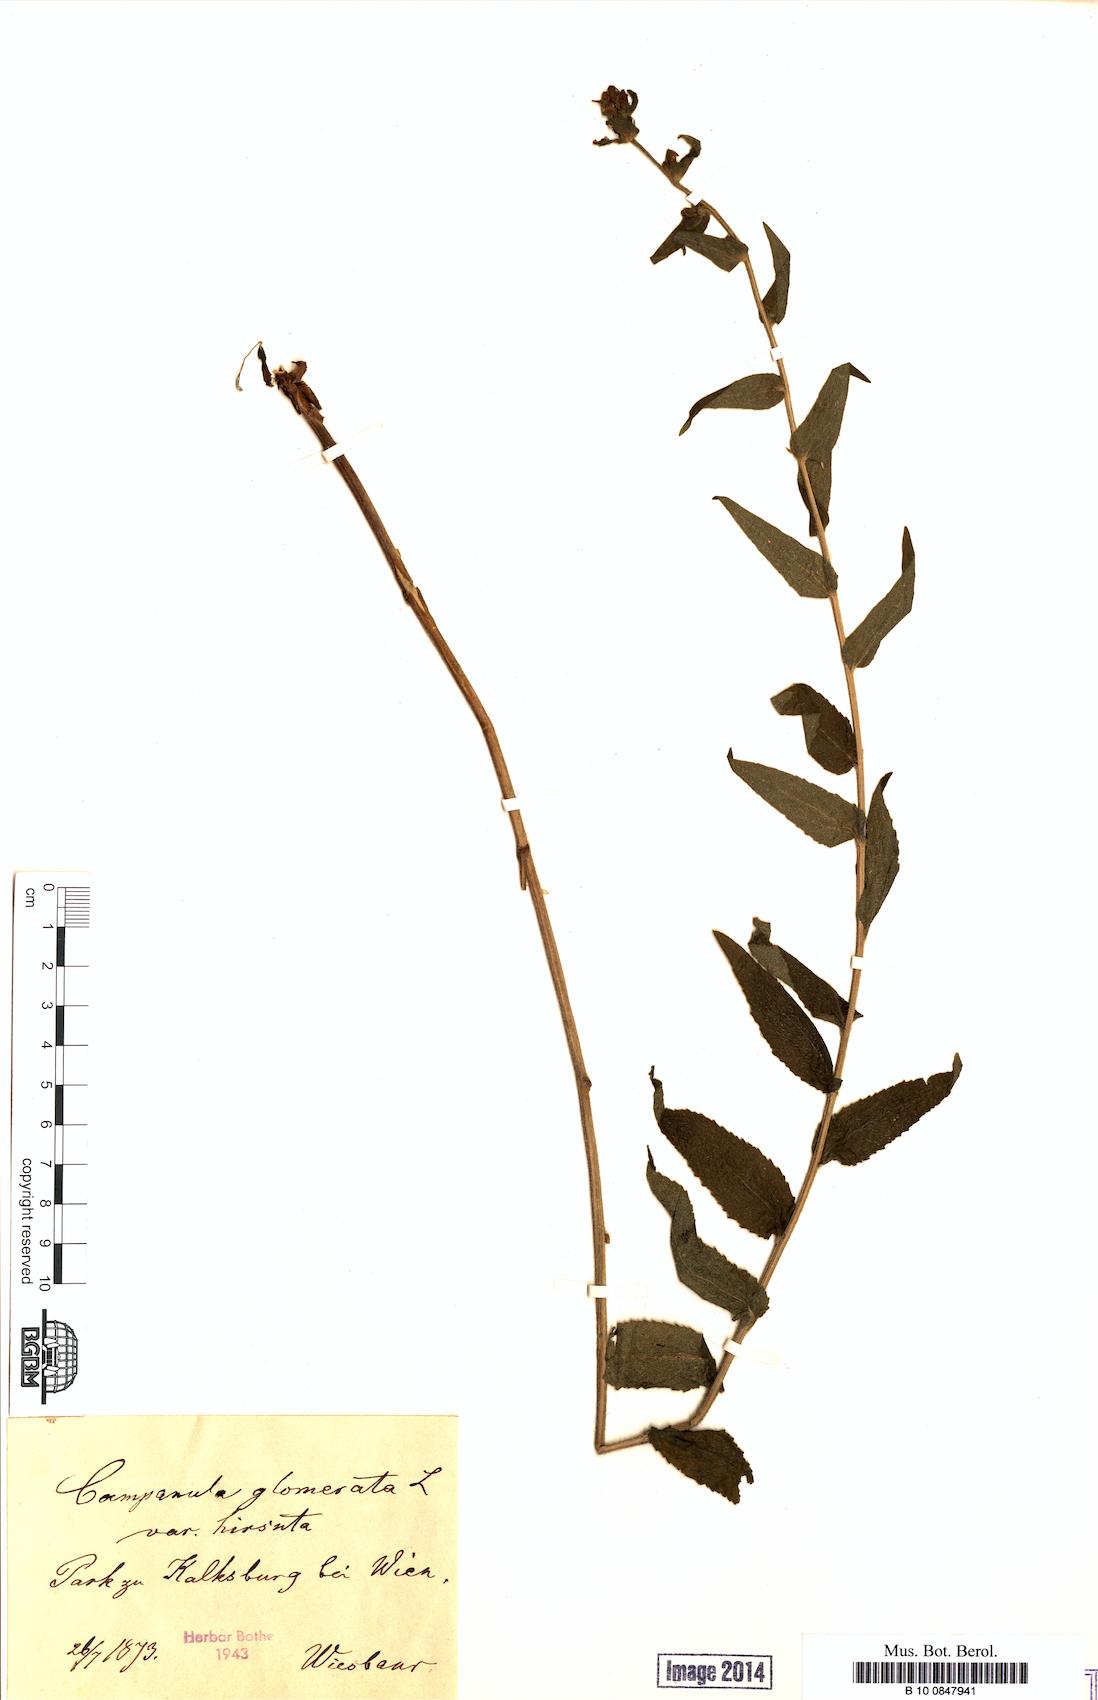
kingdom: Plantae
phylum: Tracheophyta
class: Magnoliopsida
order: Asterales
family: Campanulaceae
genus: Campanula
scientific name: Campanula glomerata
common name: Clustered bellflower
